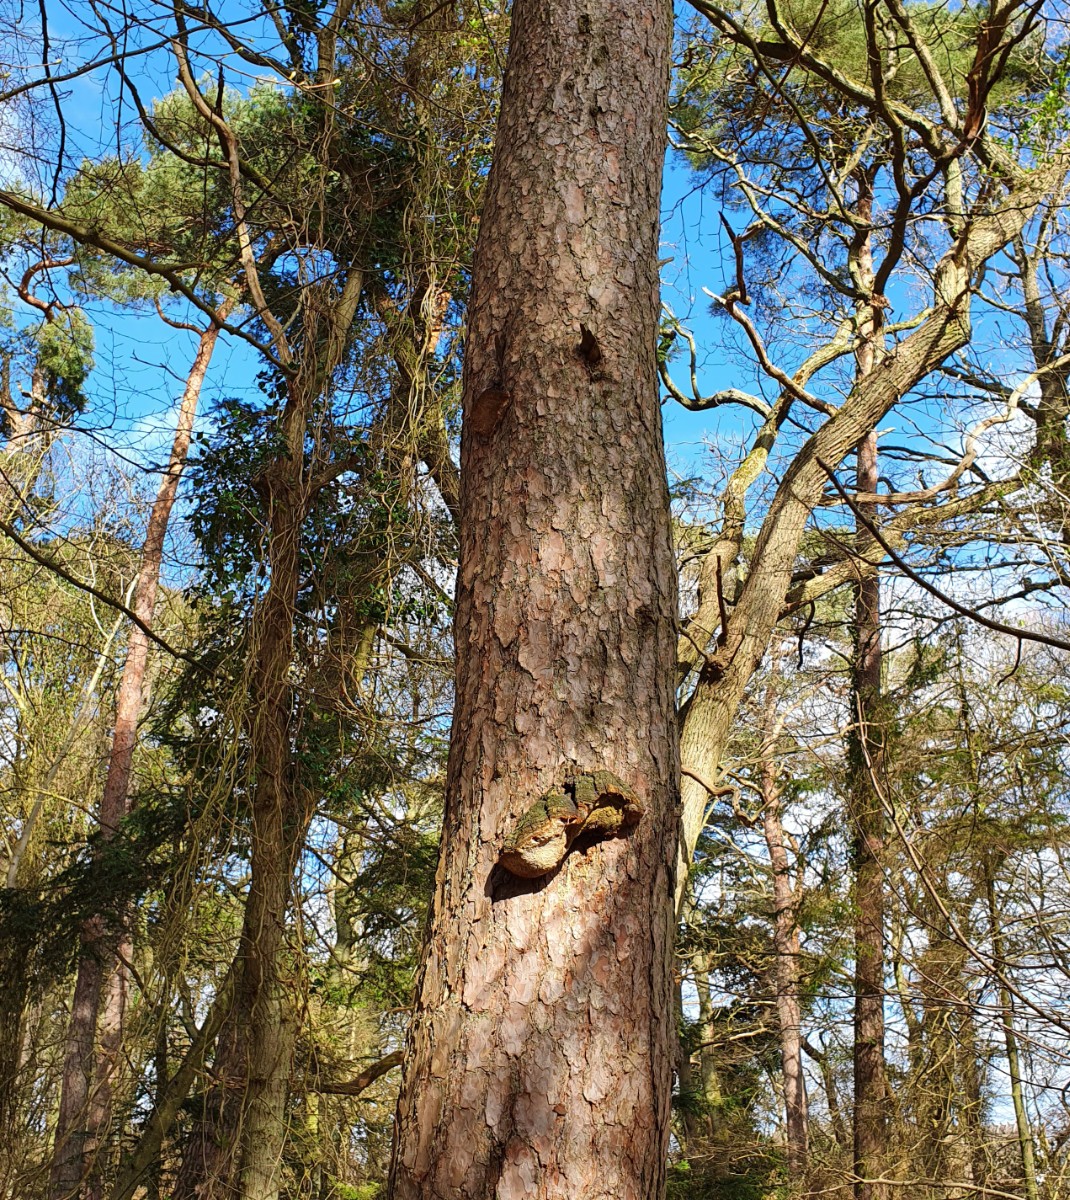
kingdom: Fungi
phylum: Basidiomycota
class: Agaricomycetes
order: Hymenochaetales
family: Hymenochaetaceae
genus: Porodaedalea
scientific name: Porodaedalea pini
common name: fyrre-ildporesvamp
